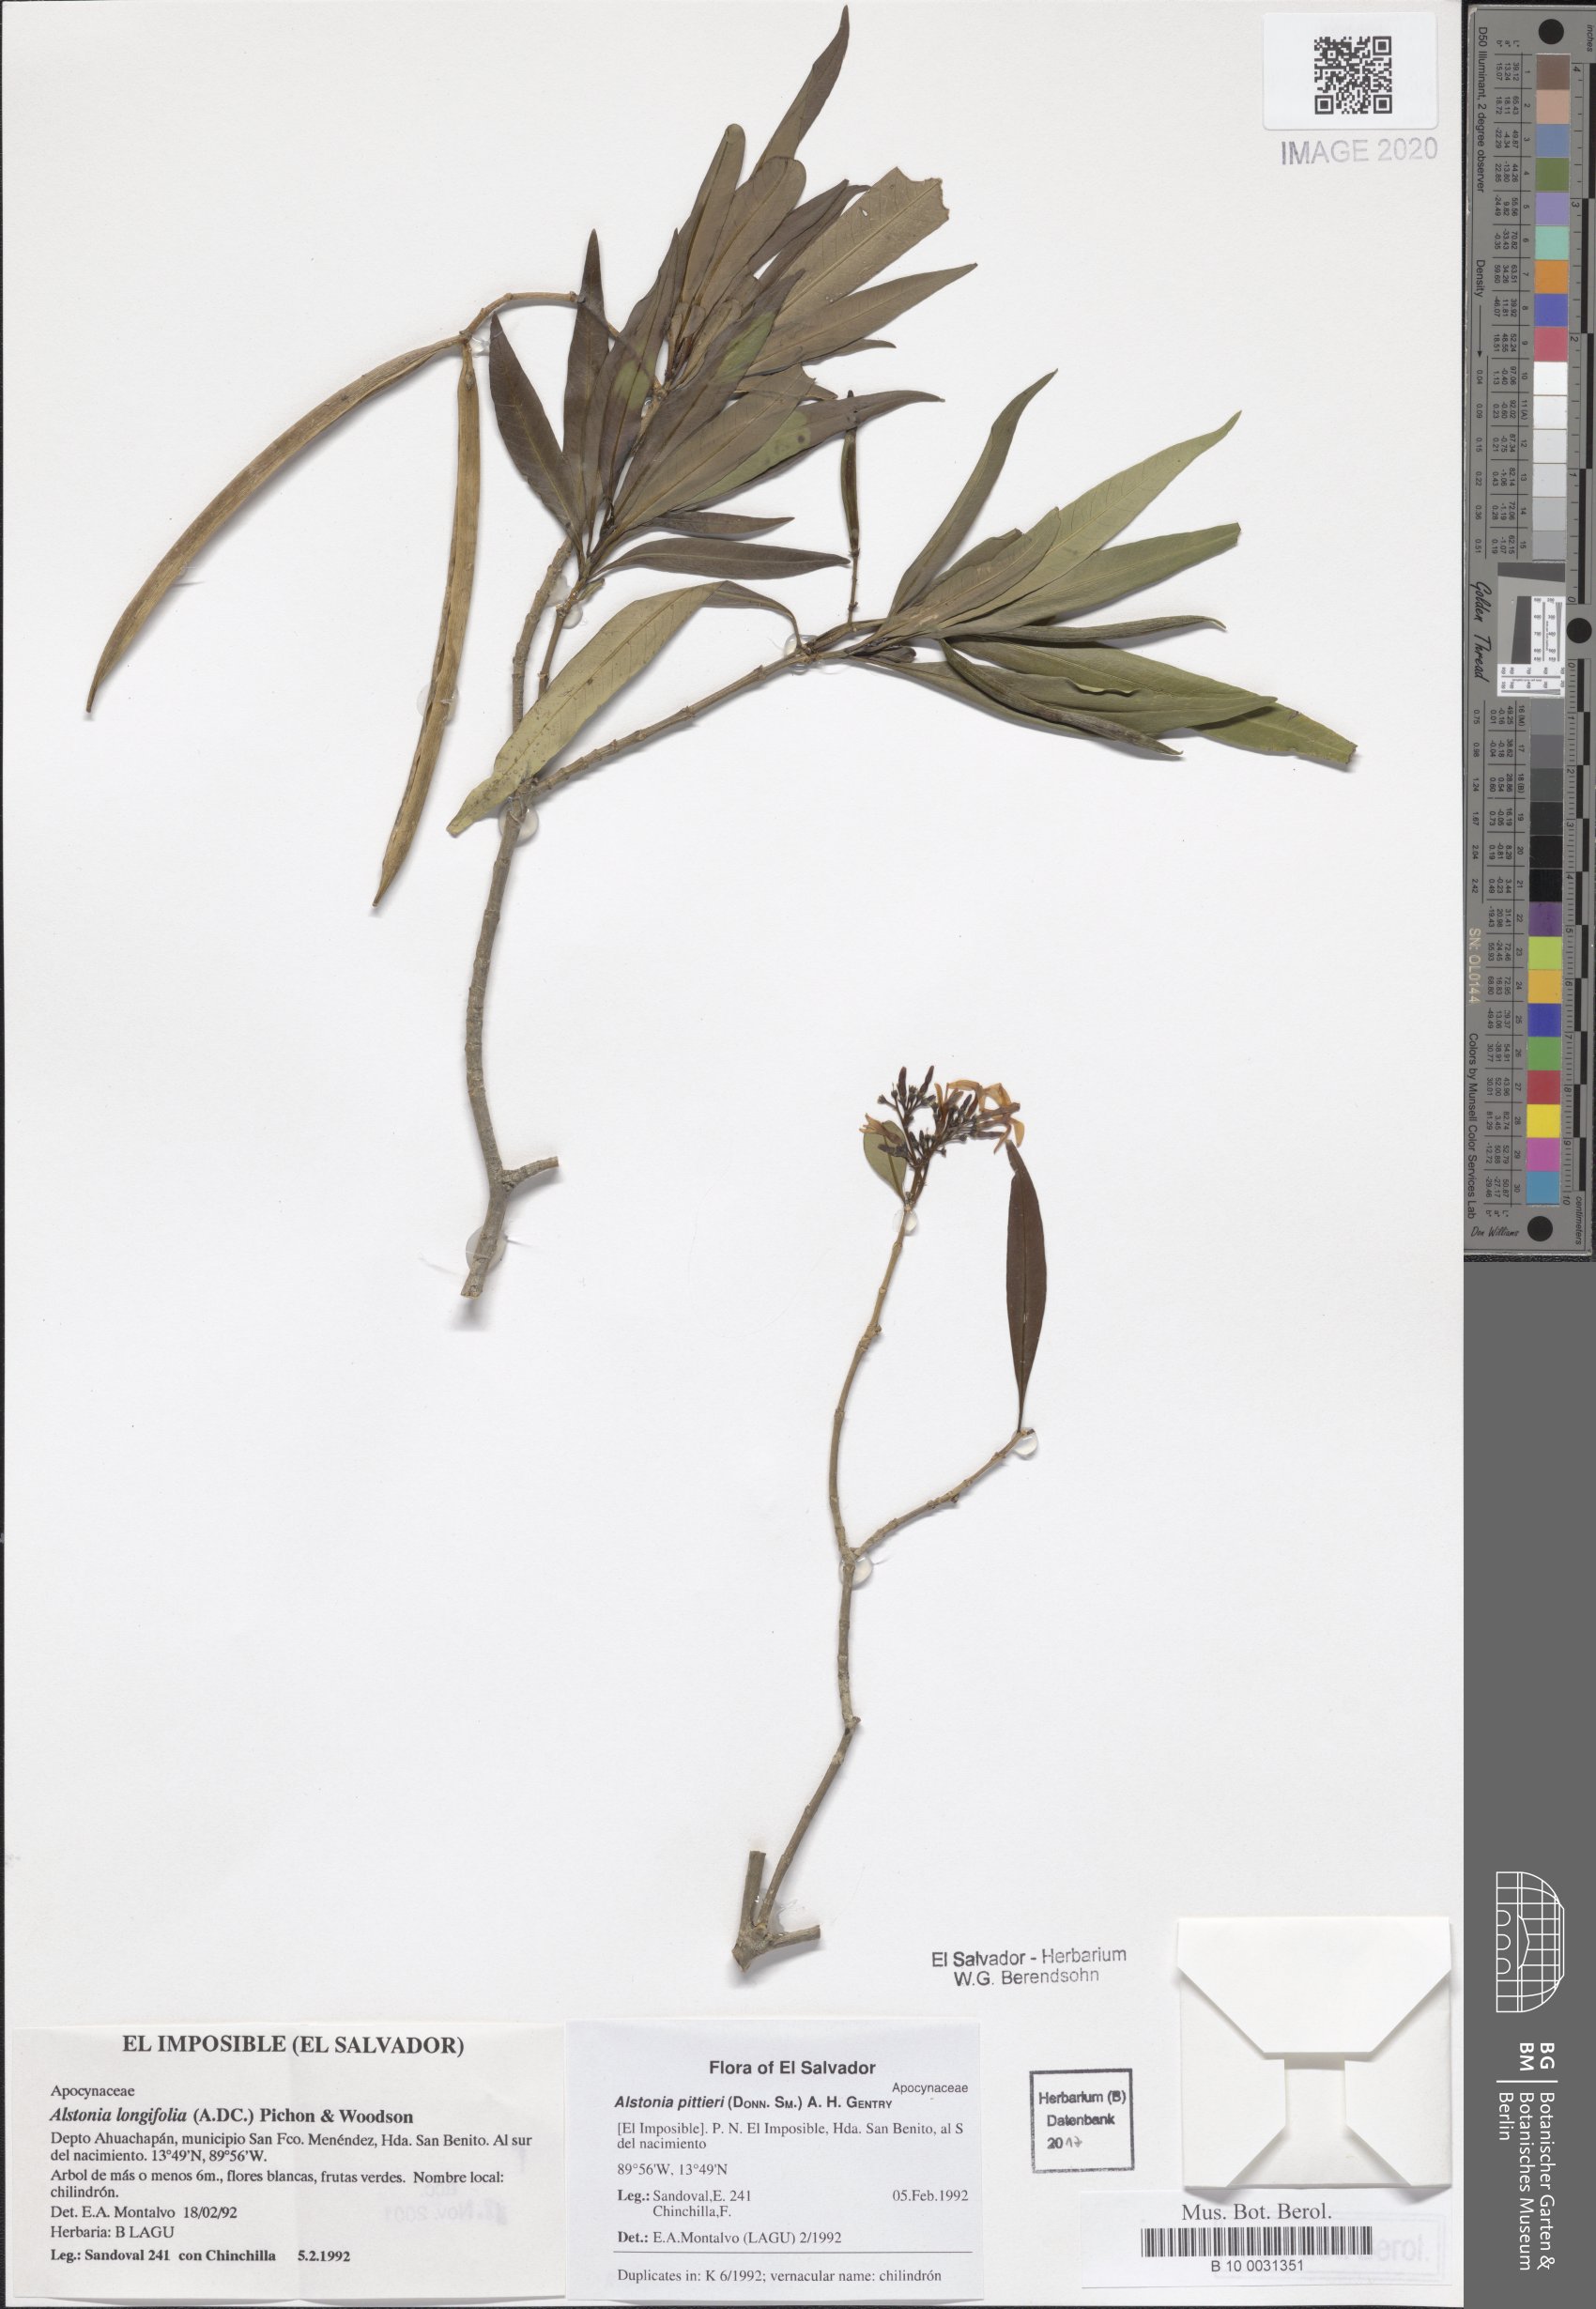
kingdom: Plantae
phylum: Tracheophyta
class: Magnoliopsida
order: Gentianales
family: Apocynaceae
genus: Tonduzia
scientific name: Tonduzia longifolia
